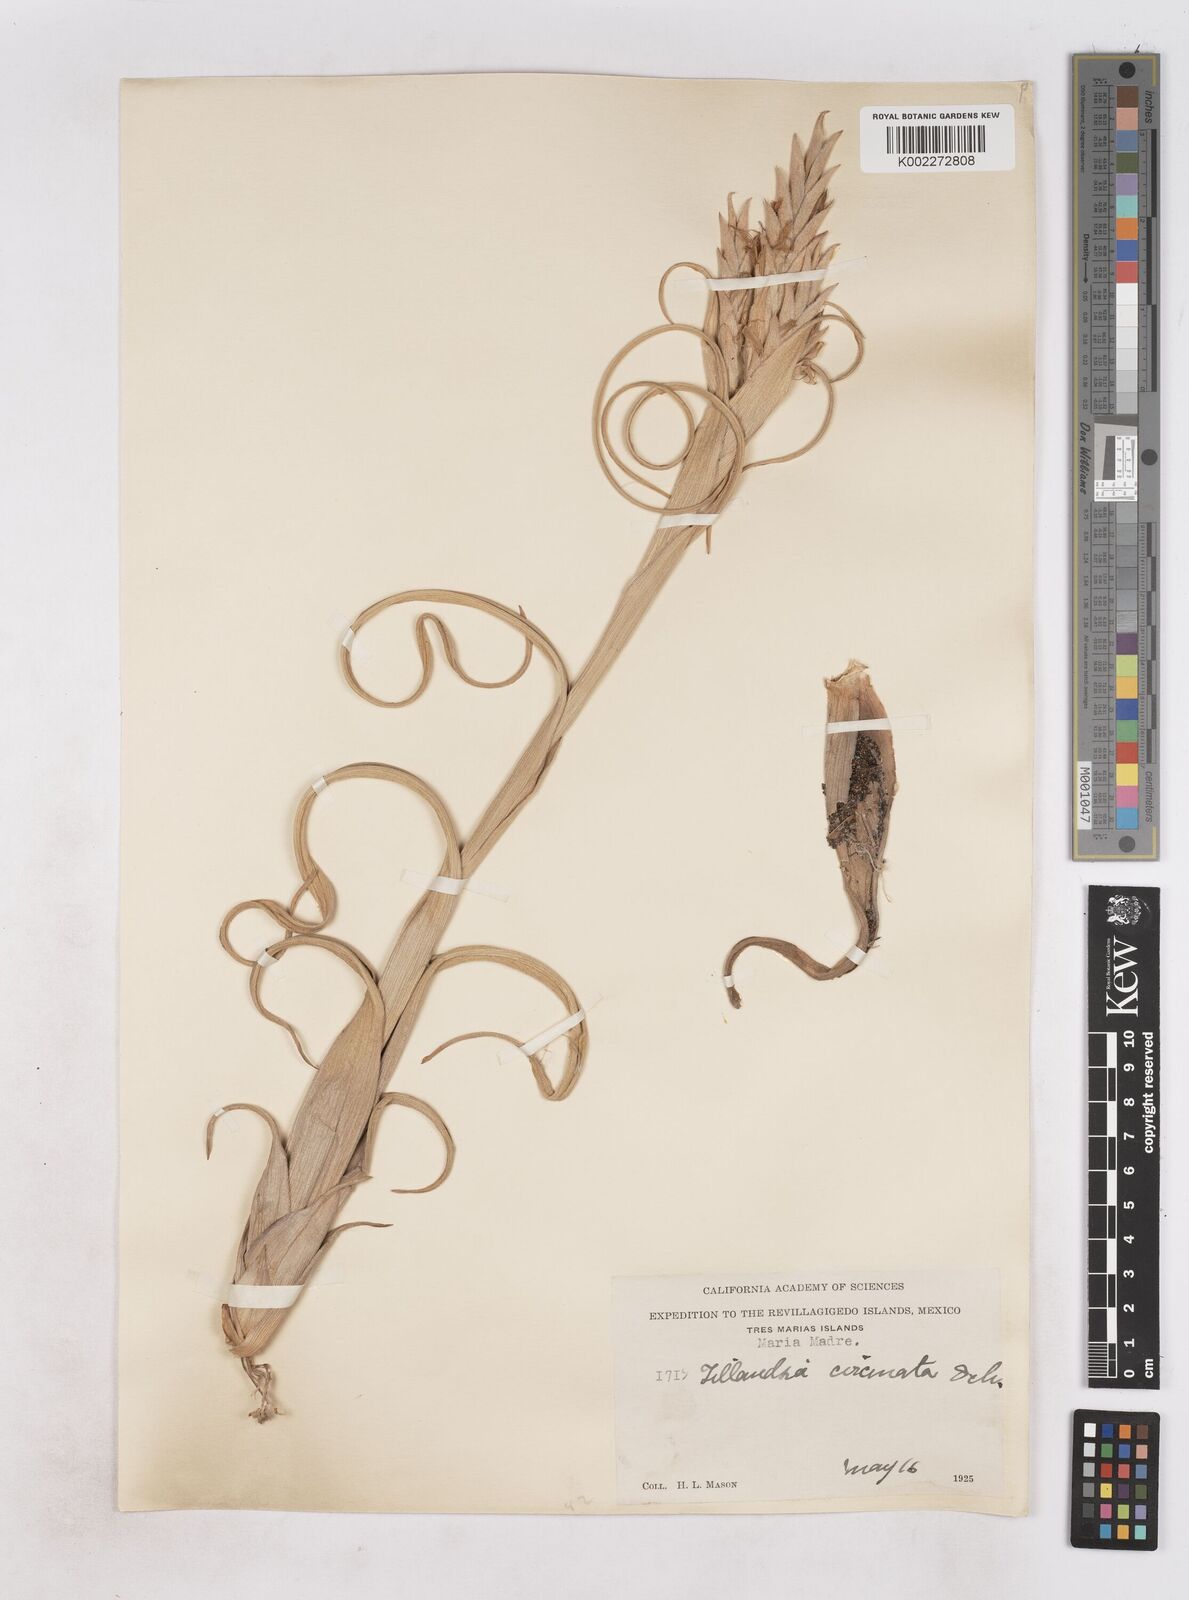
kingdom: Plantae
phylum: Tracheophyta
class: Liliopsida
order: Poales
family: Bromeliaceae
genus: Tillandsia
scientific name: Tillandsia
